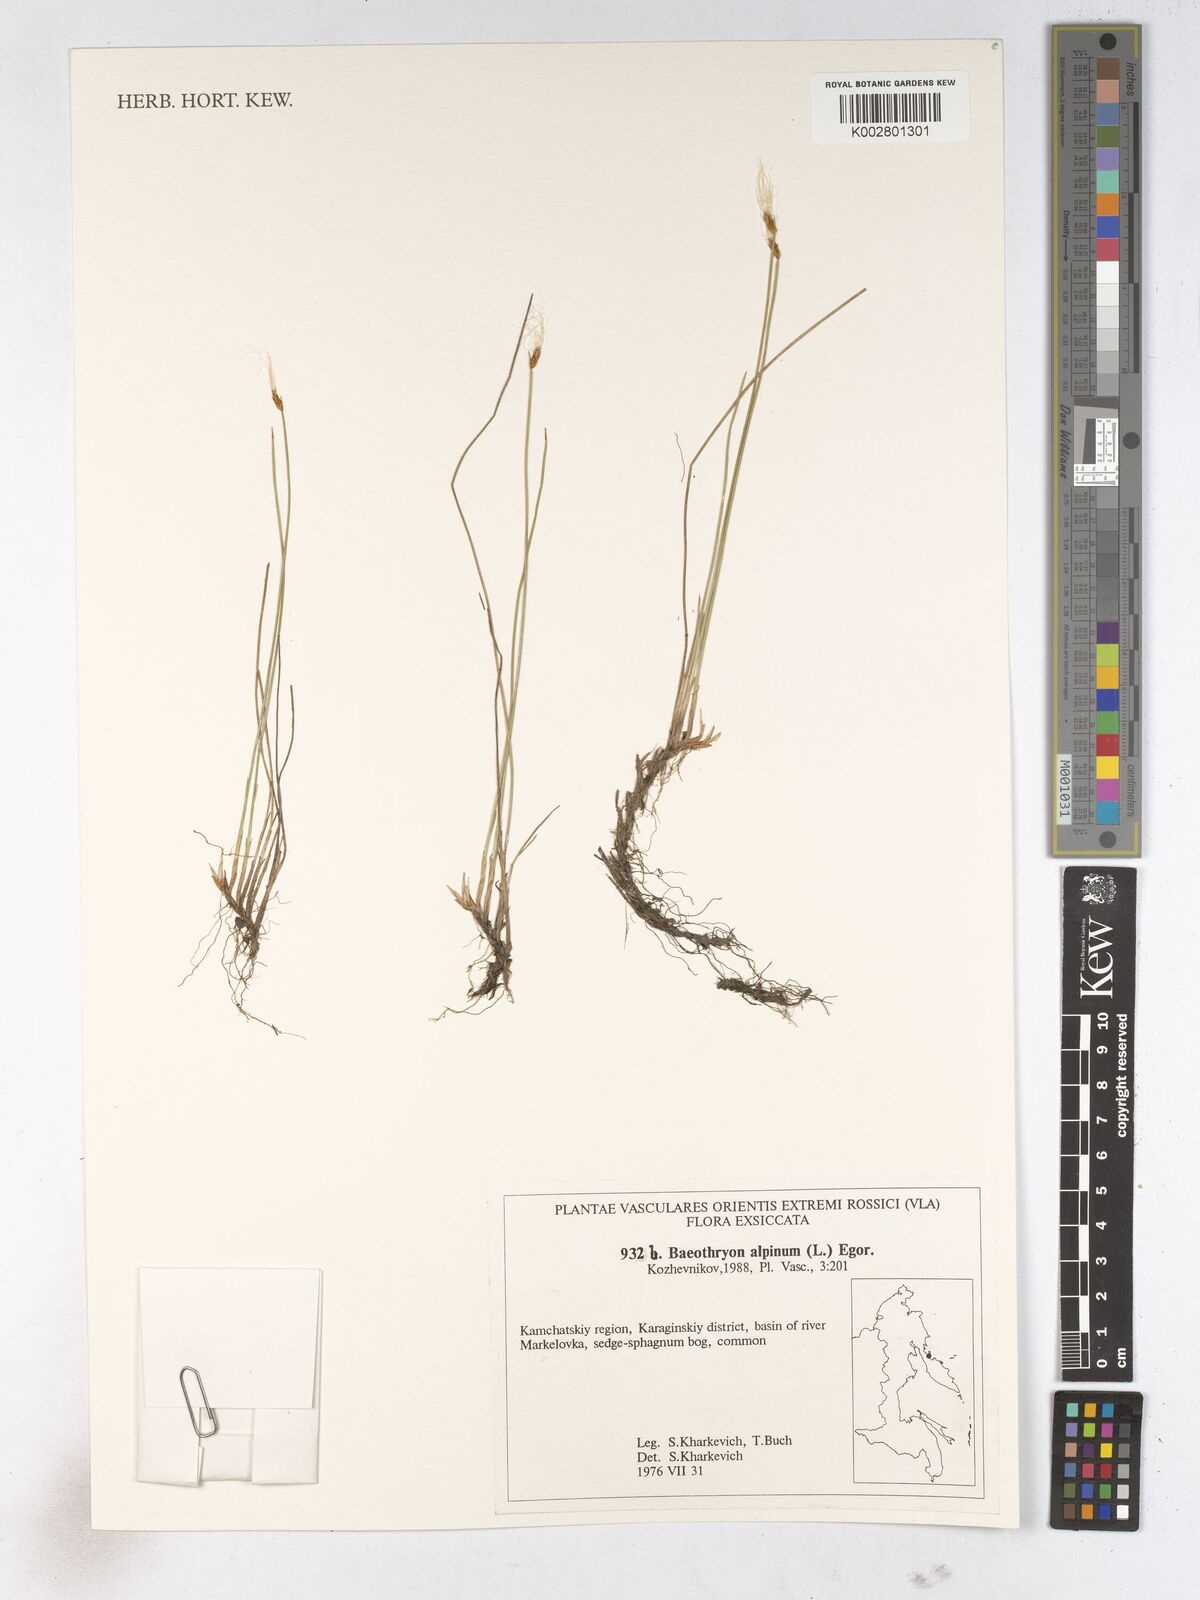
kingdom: Plantae
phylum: Tracheophyta
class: Liliopsida
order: Poales
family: Cyperaceae
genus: Trichophorum
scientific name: Trichophorum alpinum
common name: Alpine bulrush
